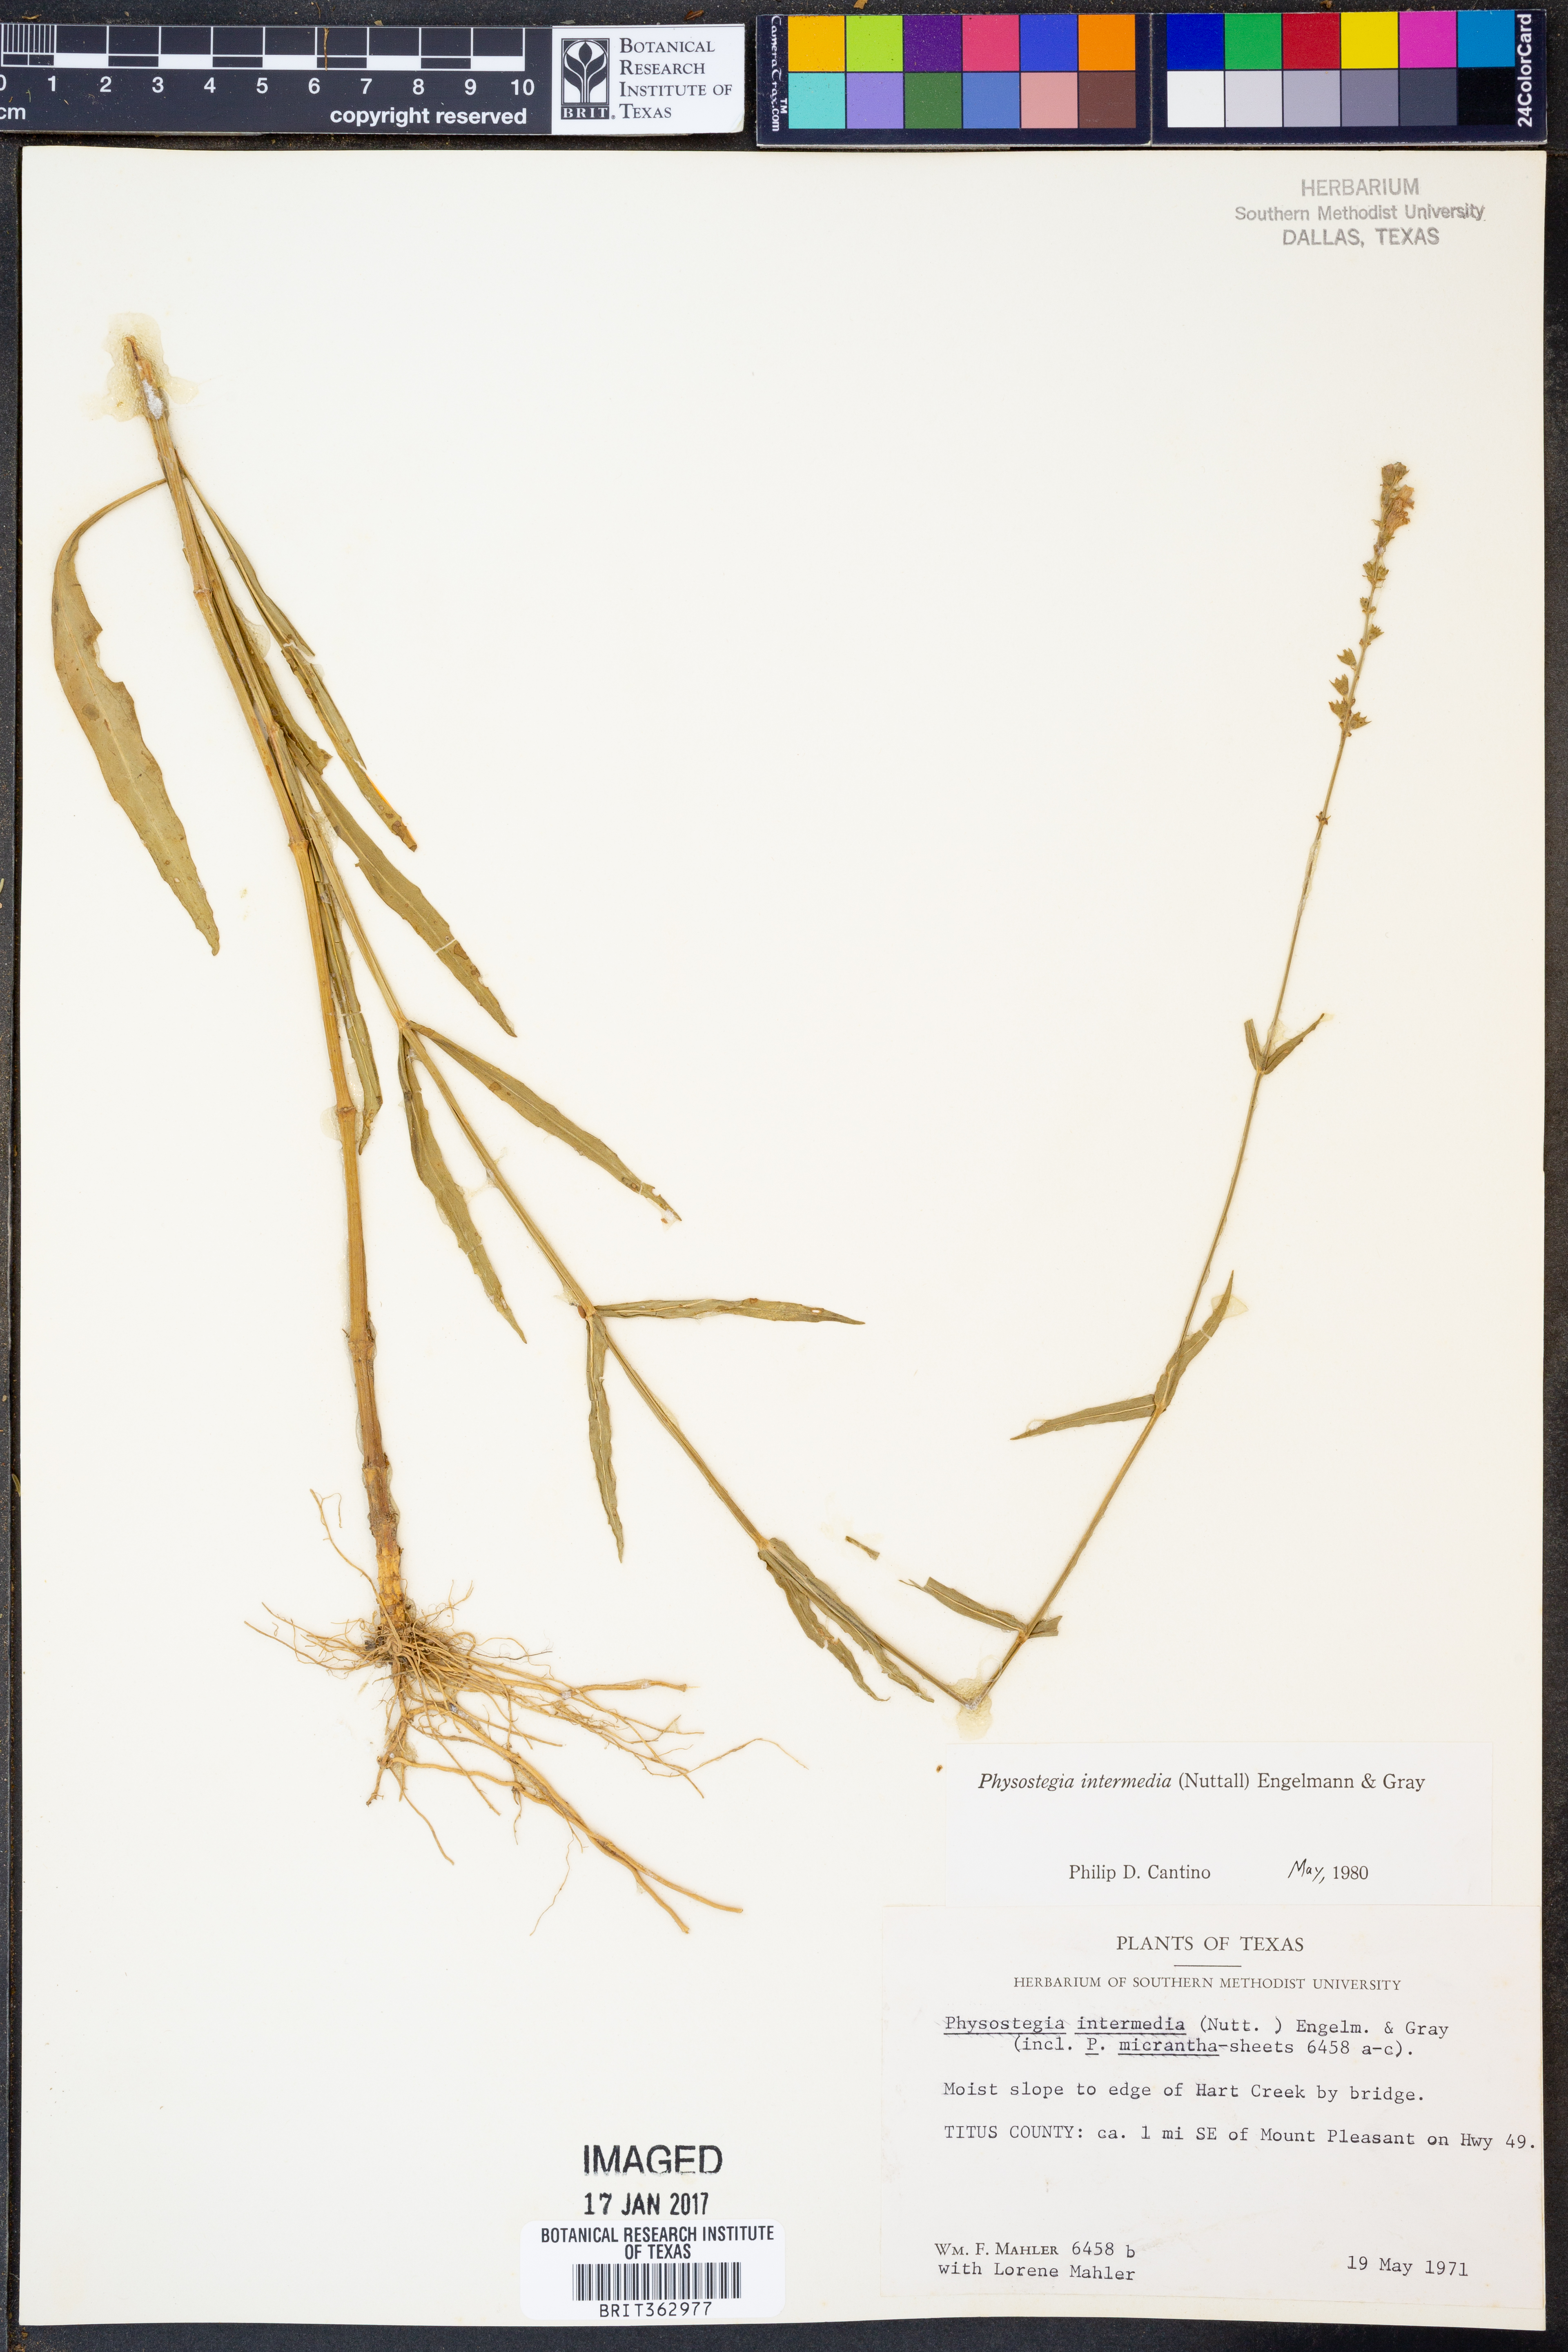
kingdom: Plantae
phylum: Tracheophyta
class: Magnoliopsida
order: Lamiales
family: Lamiaceae
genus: Physostegia
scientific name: Physostegia intermedia
